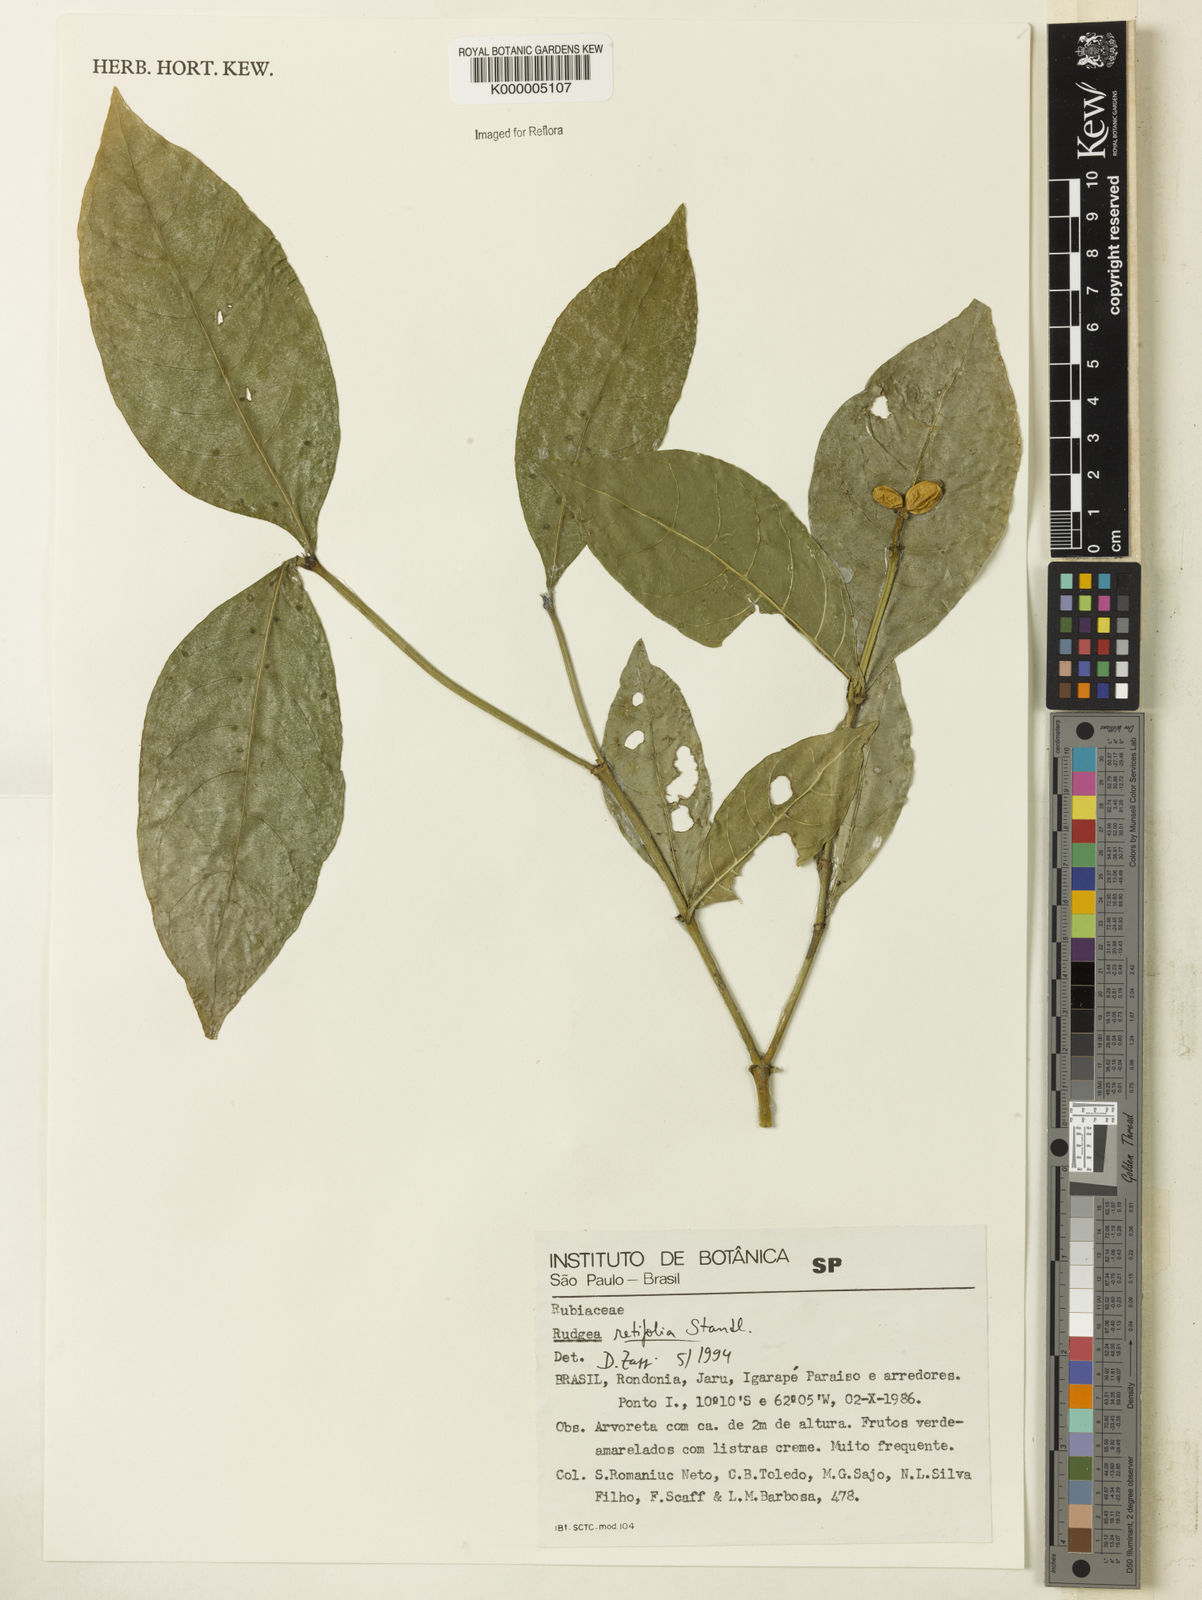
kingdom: Plantae
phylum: Tracheophyta
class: Magnoliopsida
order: Gentianales
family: Rubiaceae
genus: Rudgea
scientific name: Rudgea guianensis
